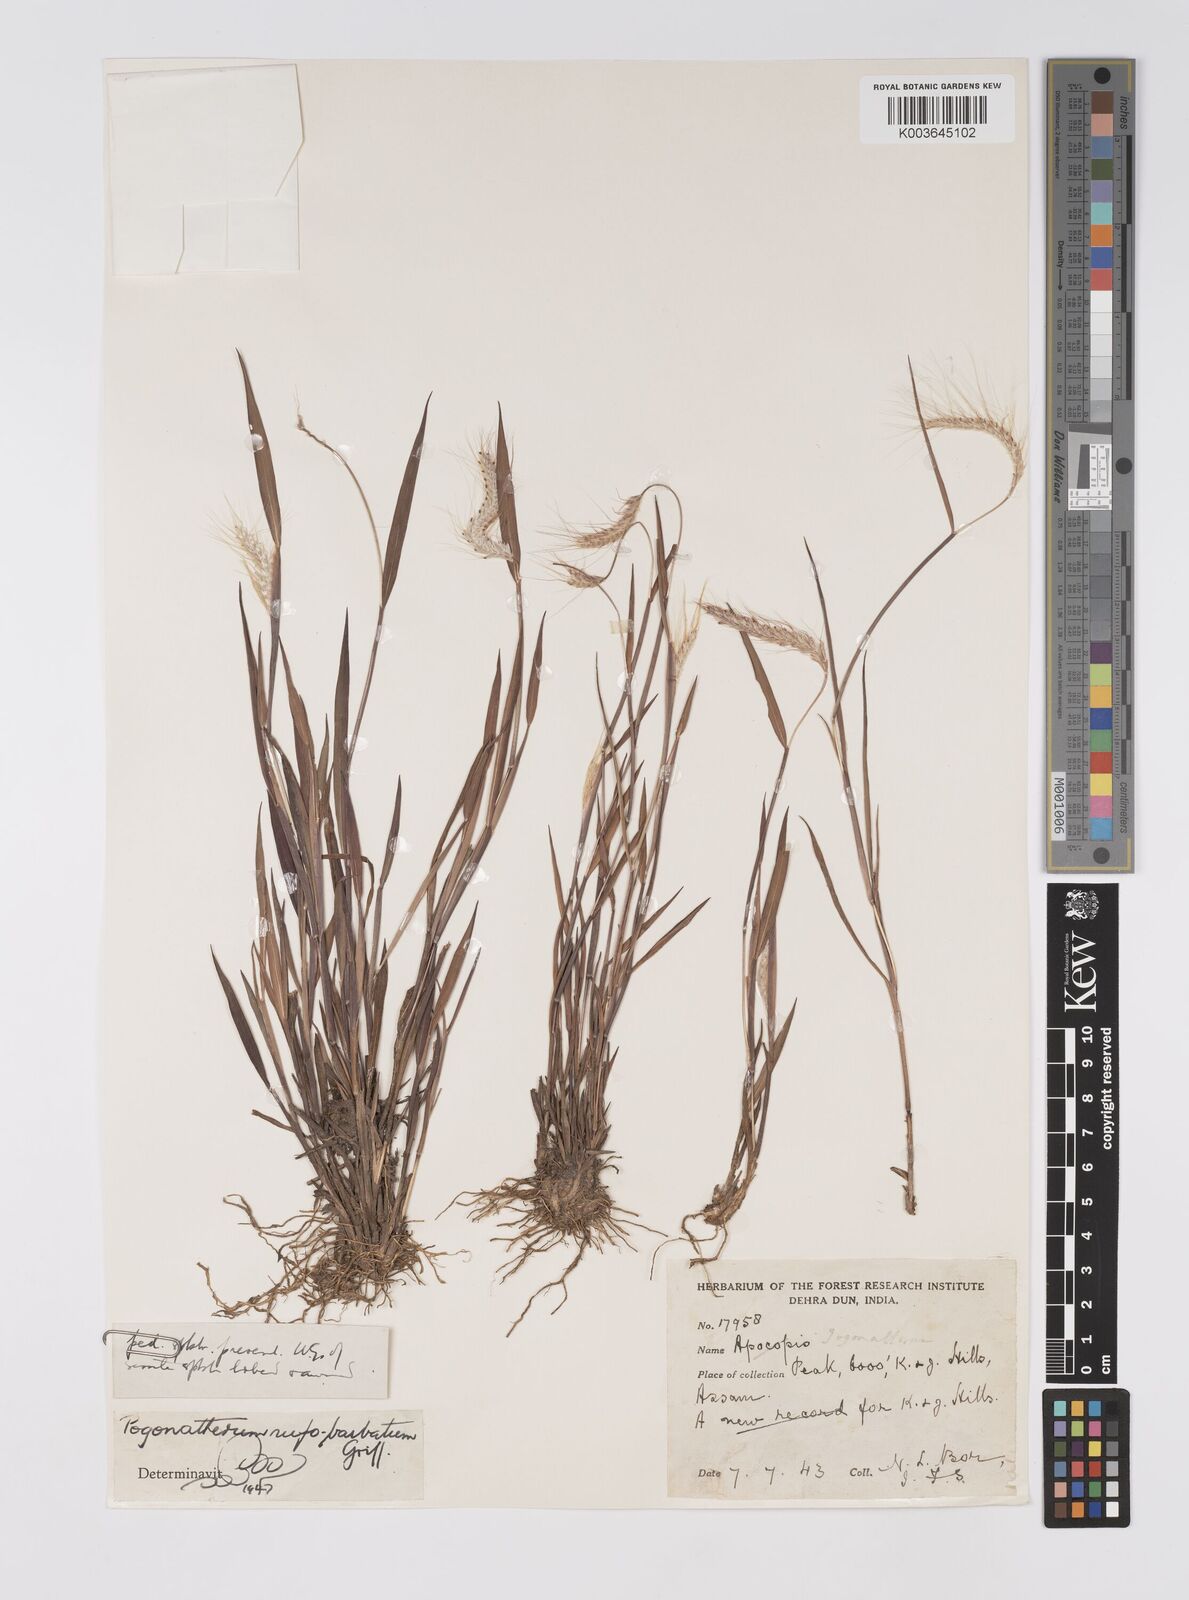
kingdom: Plantae
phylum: Tracheophyta
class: Liliopsida
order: Poales
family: Poaceae
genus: Pogonatherum
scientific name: Pogonatherum rufobarbatum
